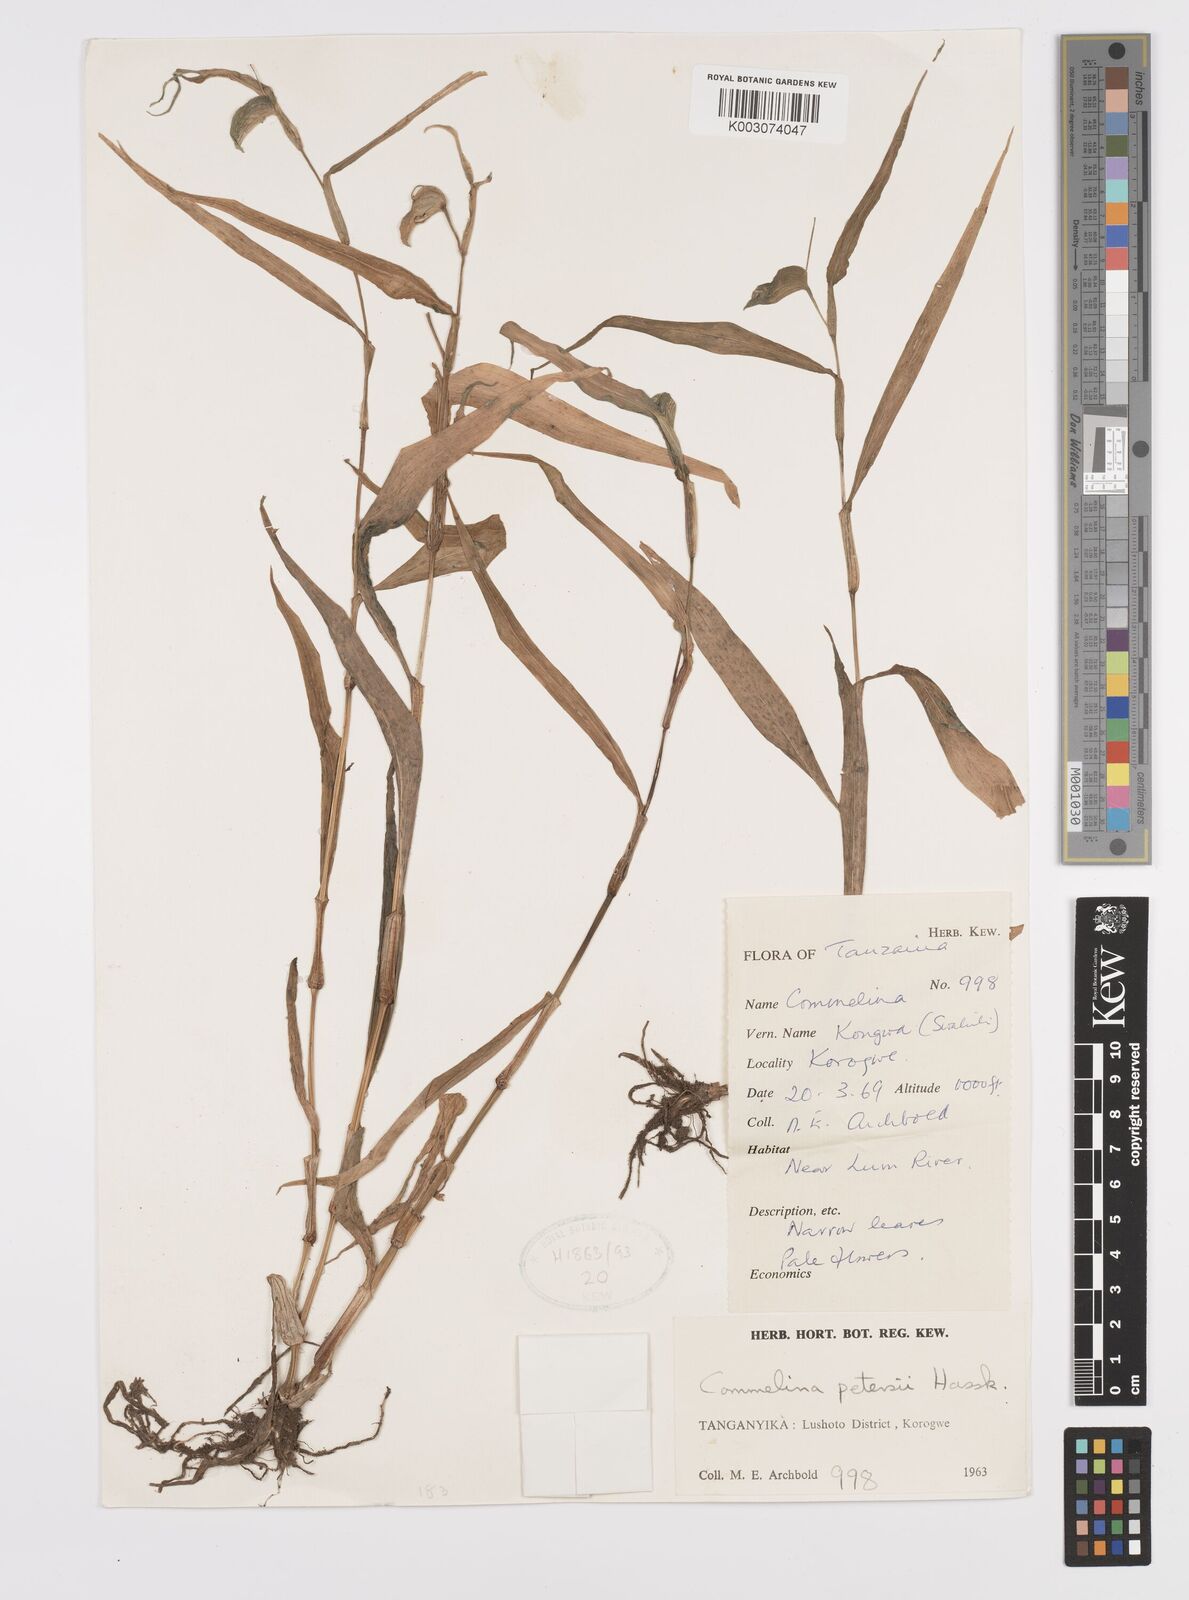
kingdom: Plantae
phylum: Tracheophyta
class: Liliopsida
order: Commelinales
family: Commelinaceae
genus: Commelina
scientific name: Commelina petersii
